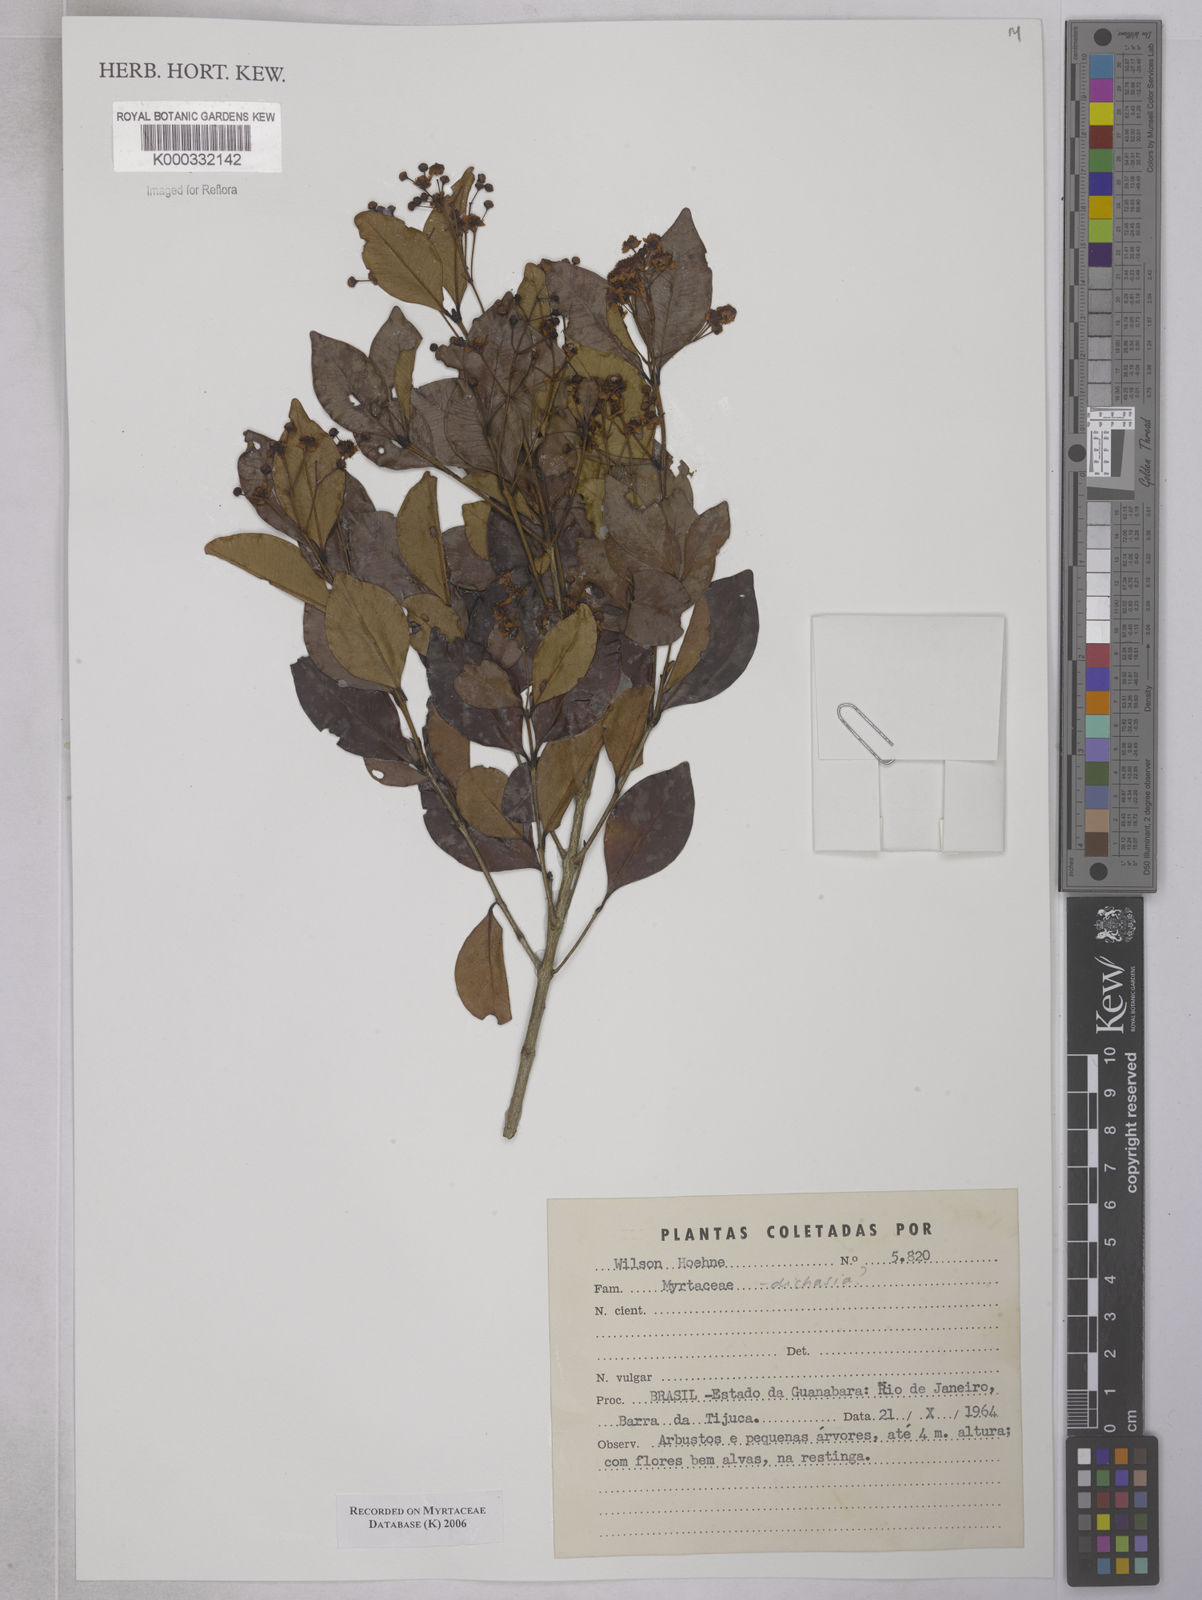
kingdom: Plantae
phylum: Tracheophyta
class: Magnoliopsida
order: Myrtales
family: Myrtaceae
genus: Myrcia
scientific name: Myrcia
